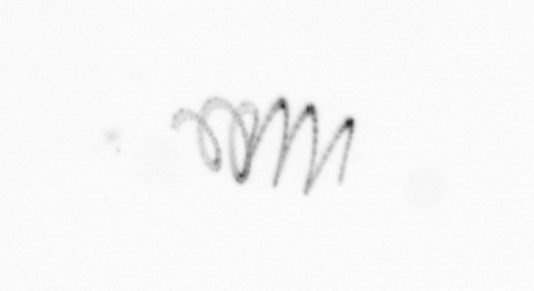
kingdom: Chromista
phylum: Ochrophyta
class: Bacillariophyceae
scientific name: Bacillariophyceae
